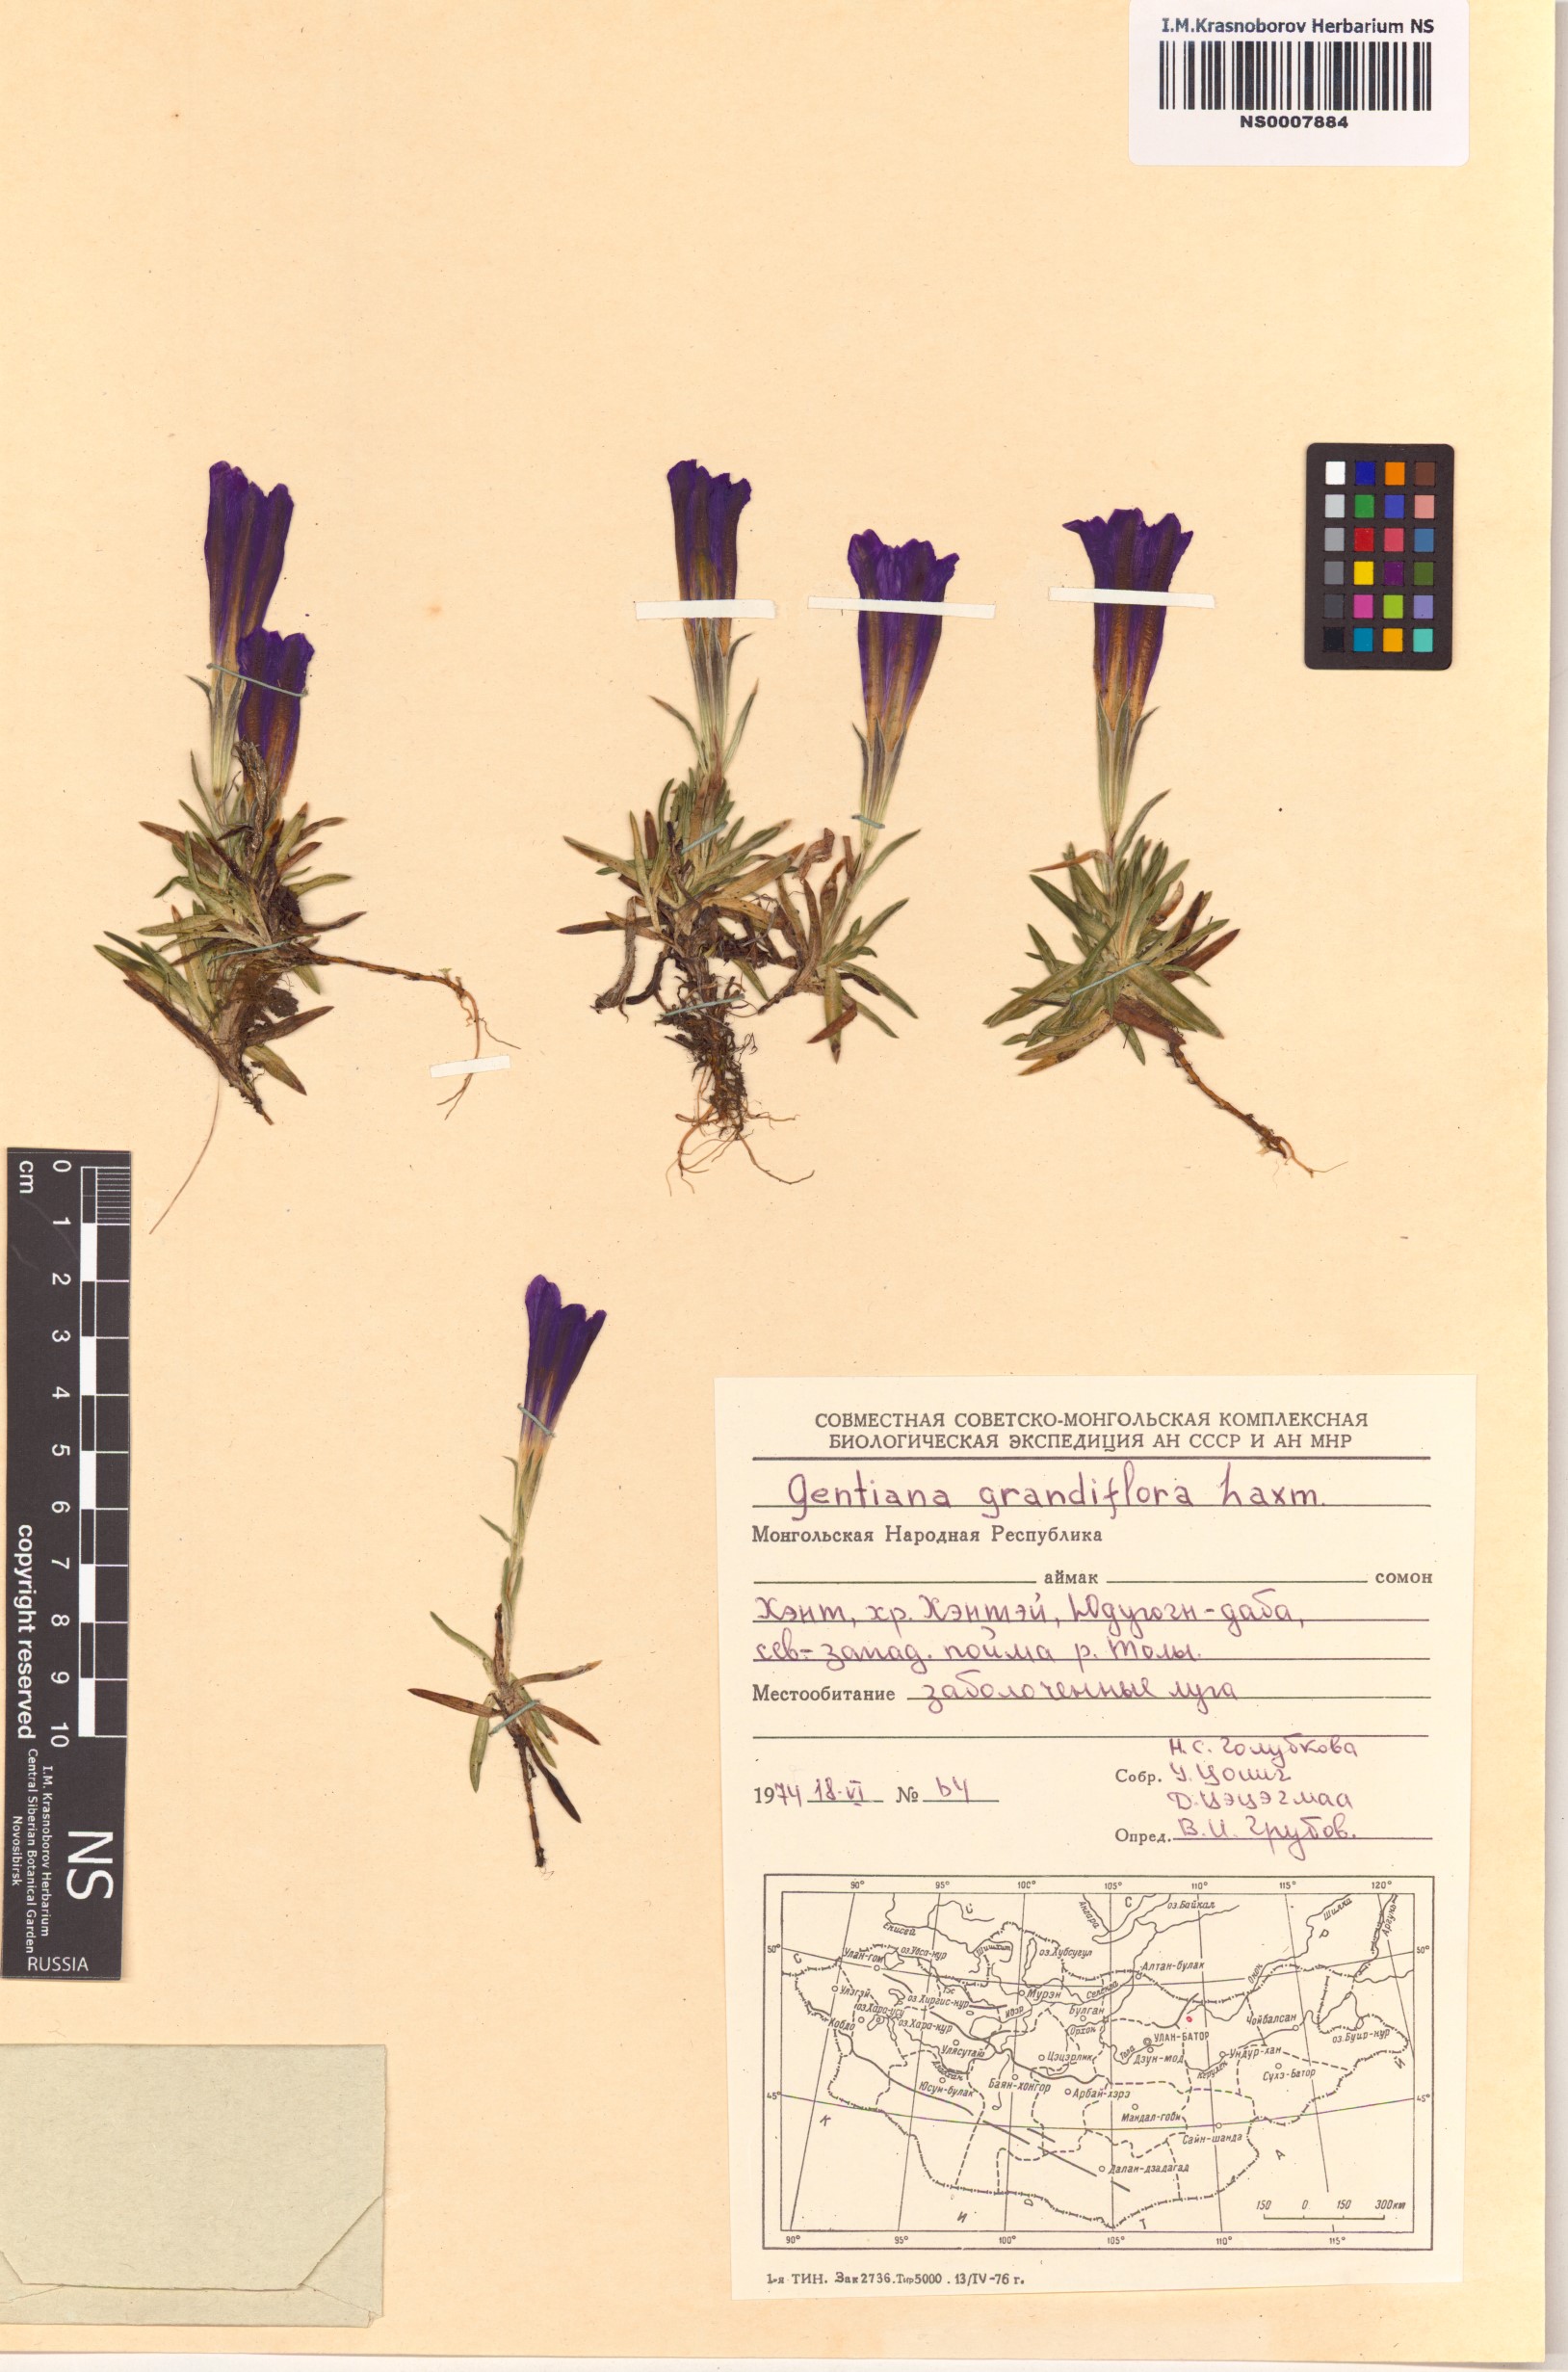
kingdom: Plantae
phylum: Tracheophyta
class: Magnoliopsida
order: Gentianales
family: Gentianaceae
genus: Gentiana
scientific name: Gentiana grandiflora
